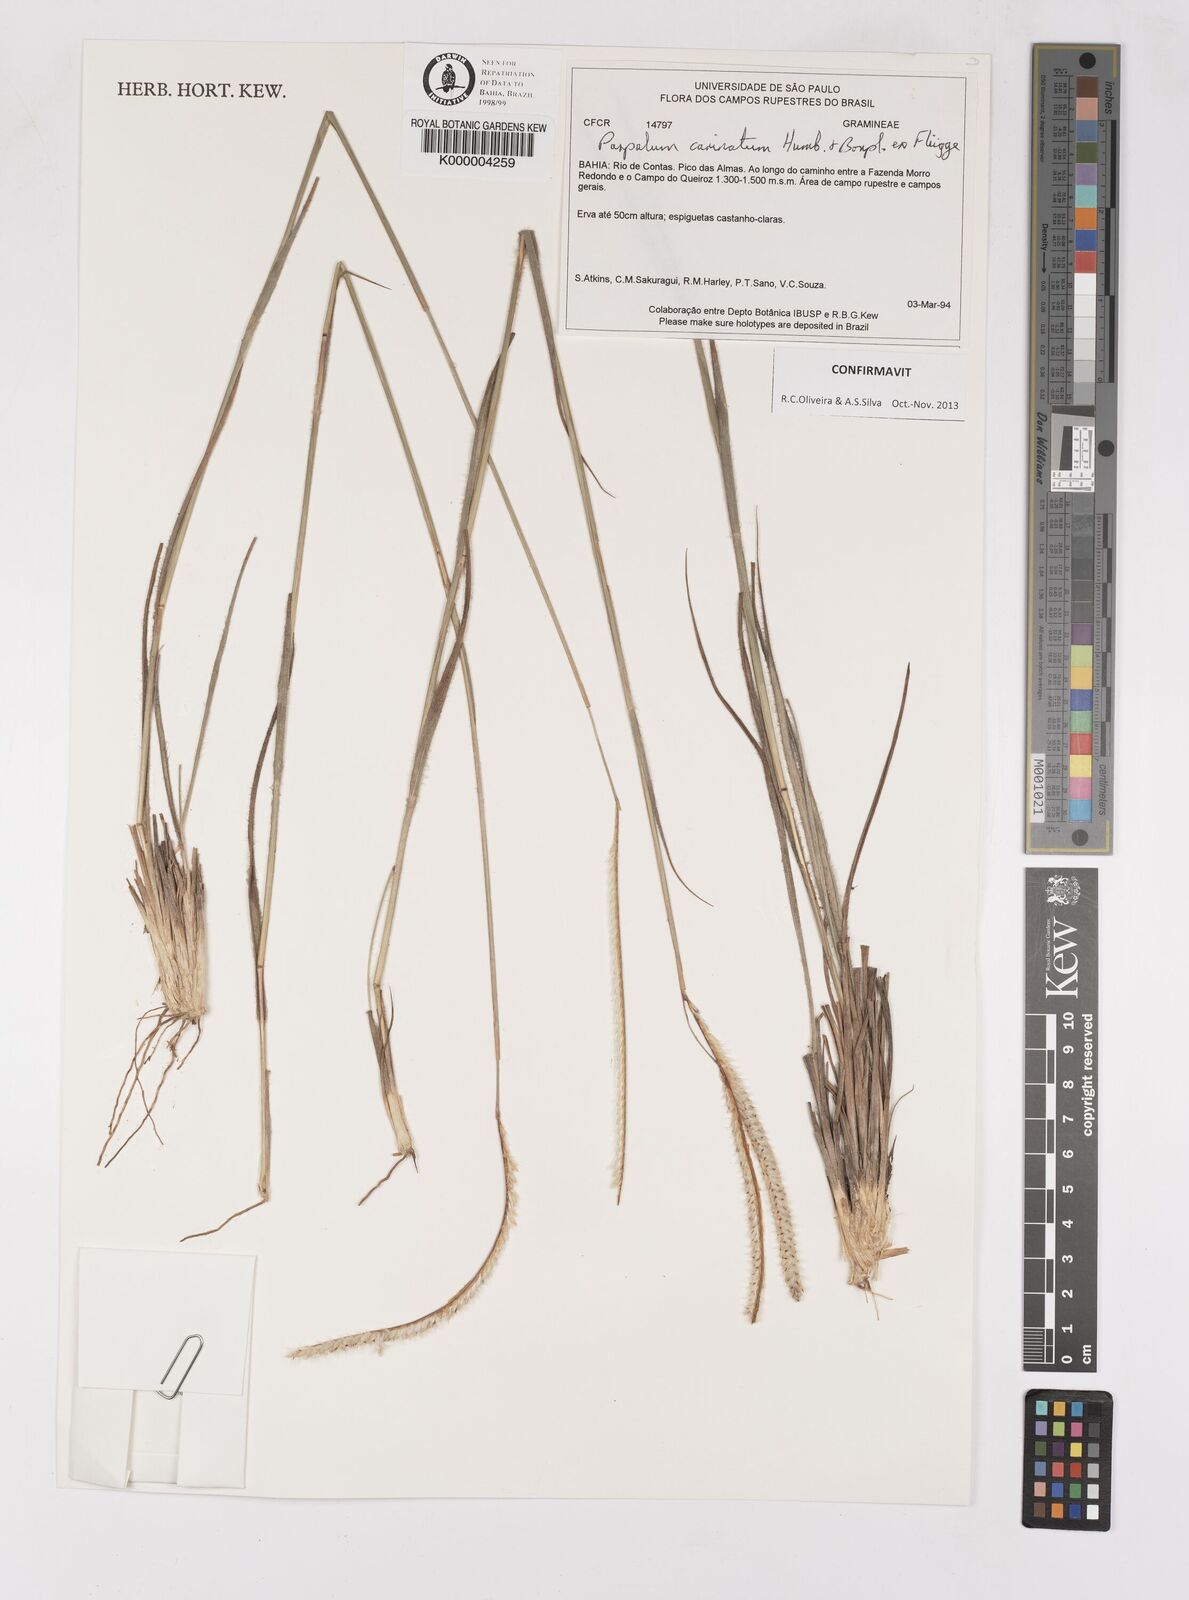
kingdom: Plantae
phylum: Tracheophyta
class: Liliopsida
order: Poales
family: Poaceae
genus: Paspalum
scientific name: Paspalum carinatum
